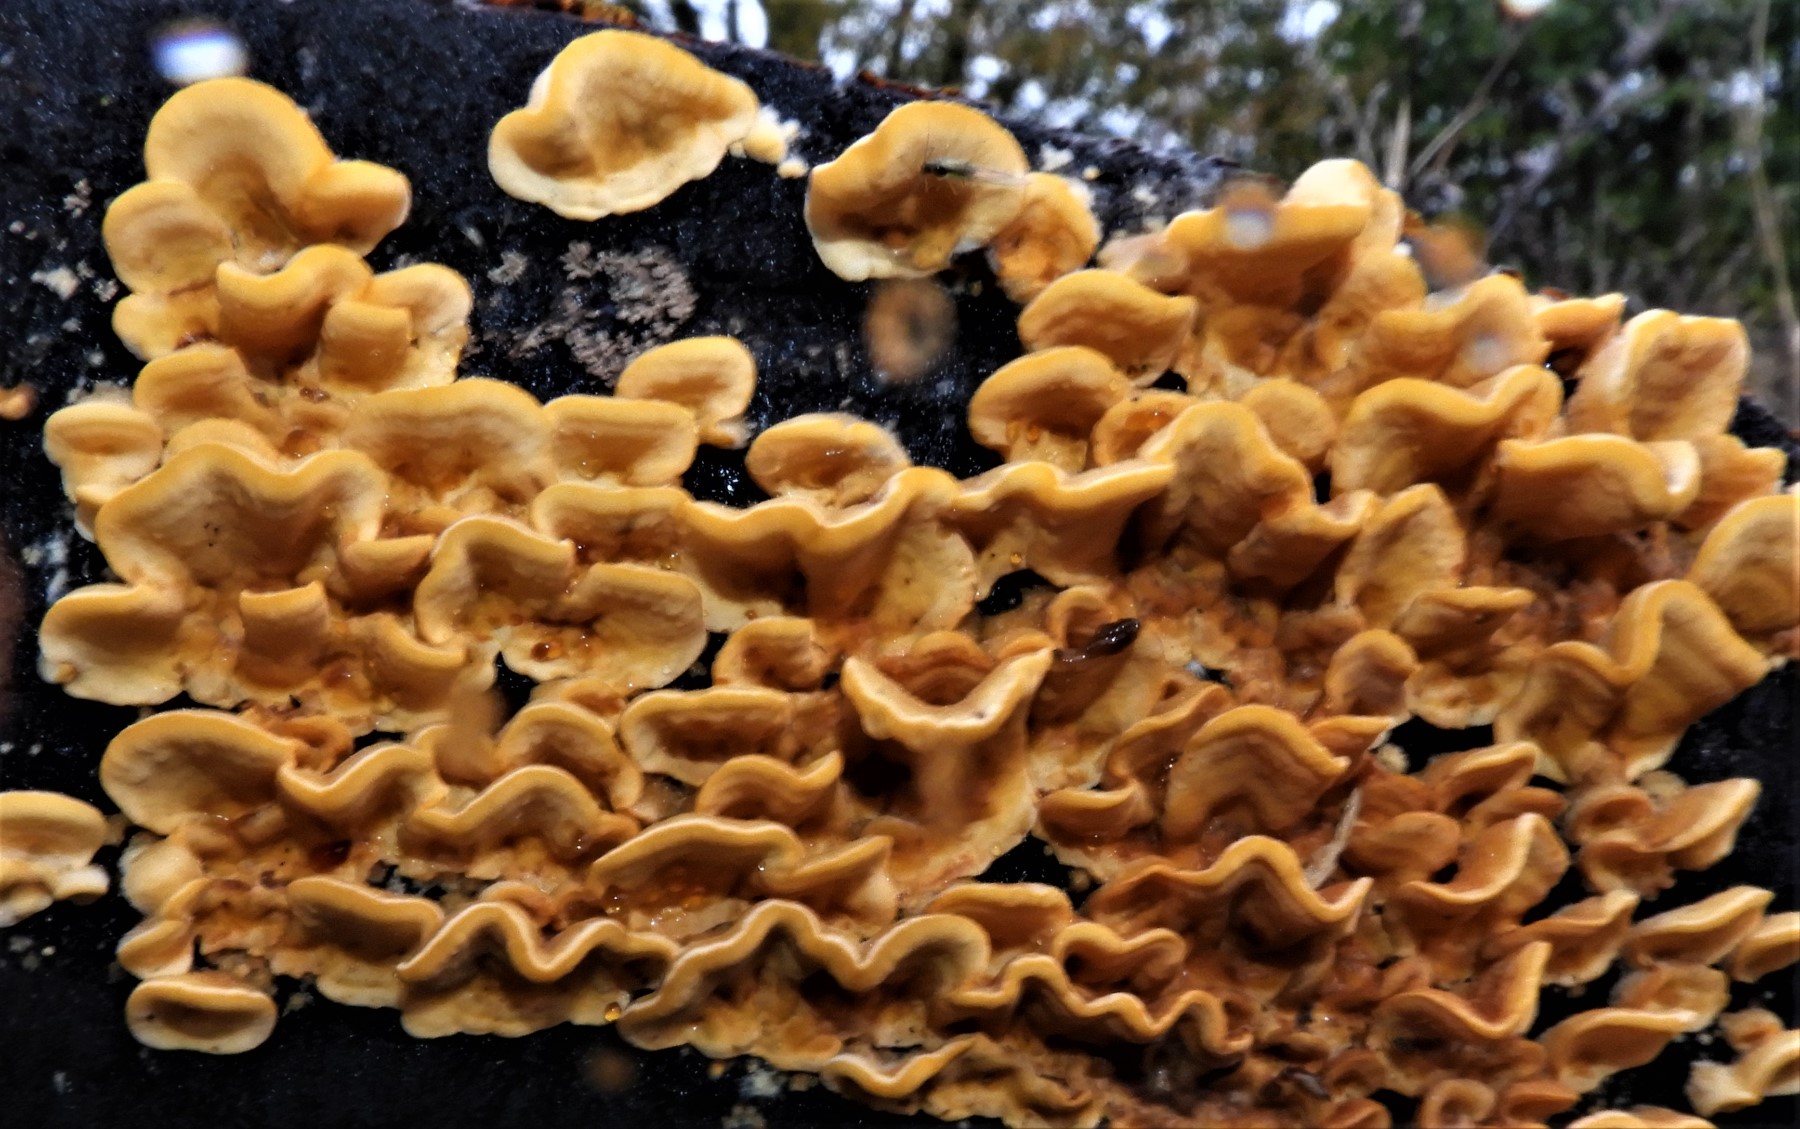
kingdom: Fungi
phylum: Basidiomycota
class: Agaricomycetes
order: Russulales
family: Stereaceae
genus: Stereum
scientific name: Stereum hirsutum
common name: håret lædersvamp
